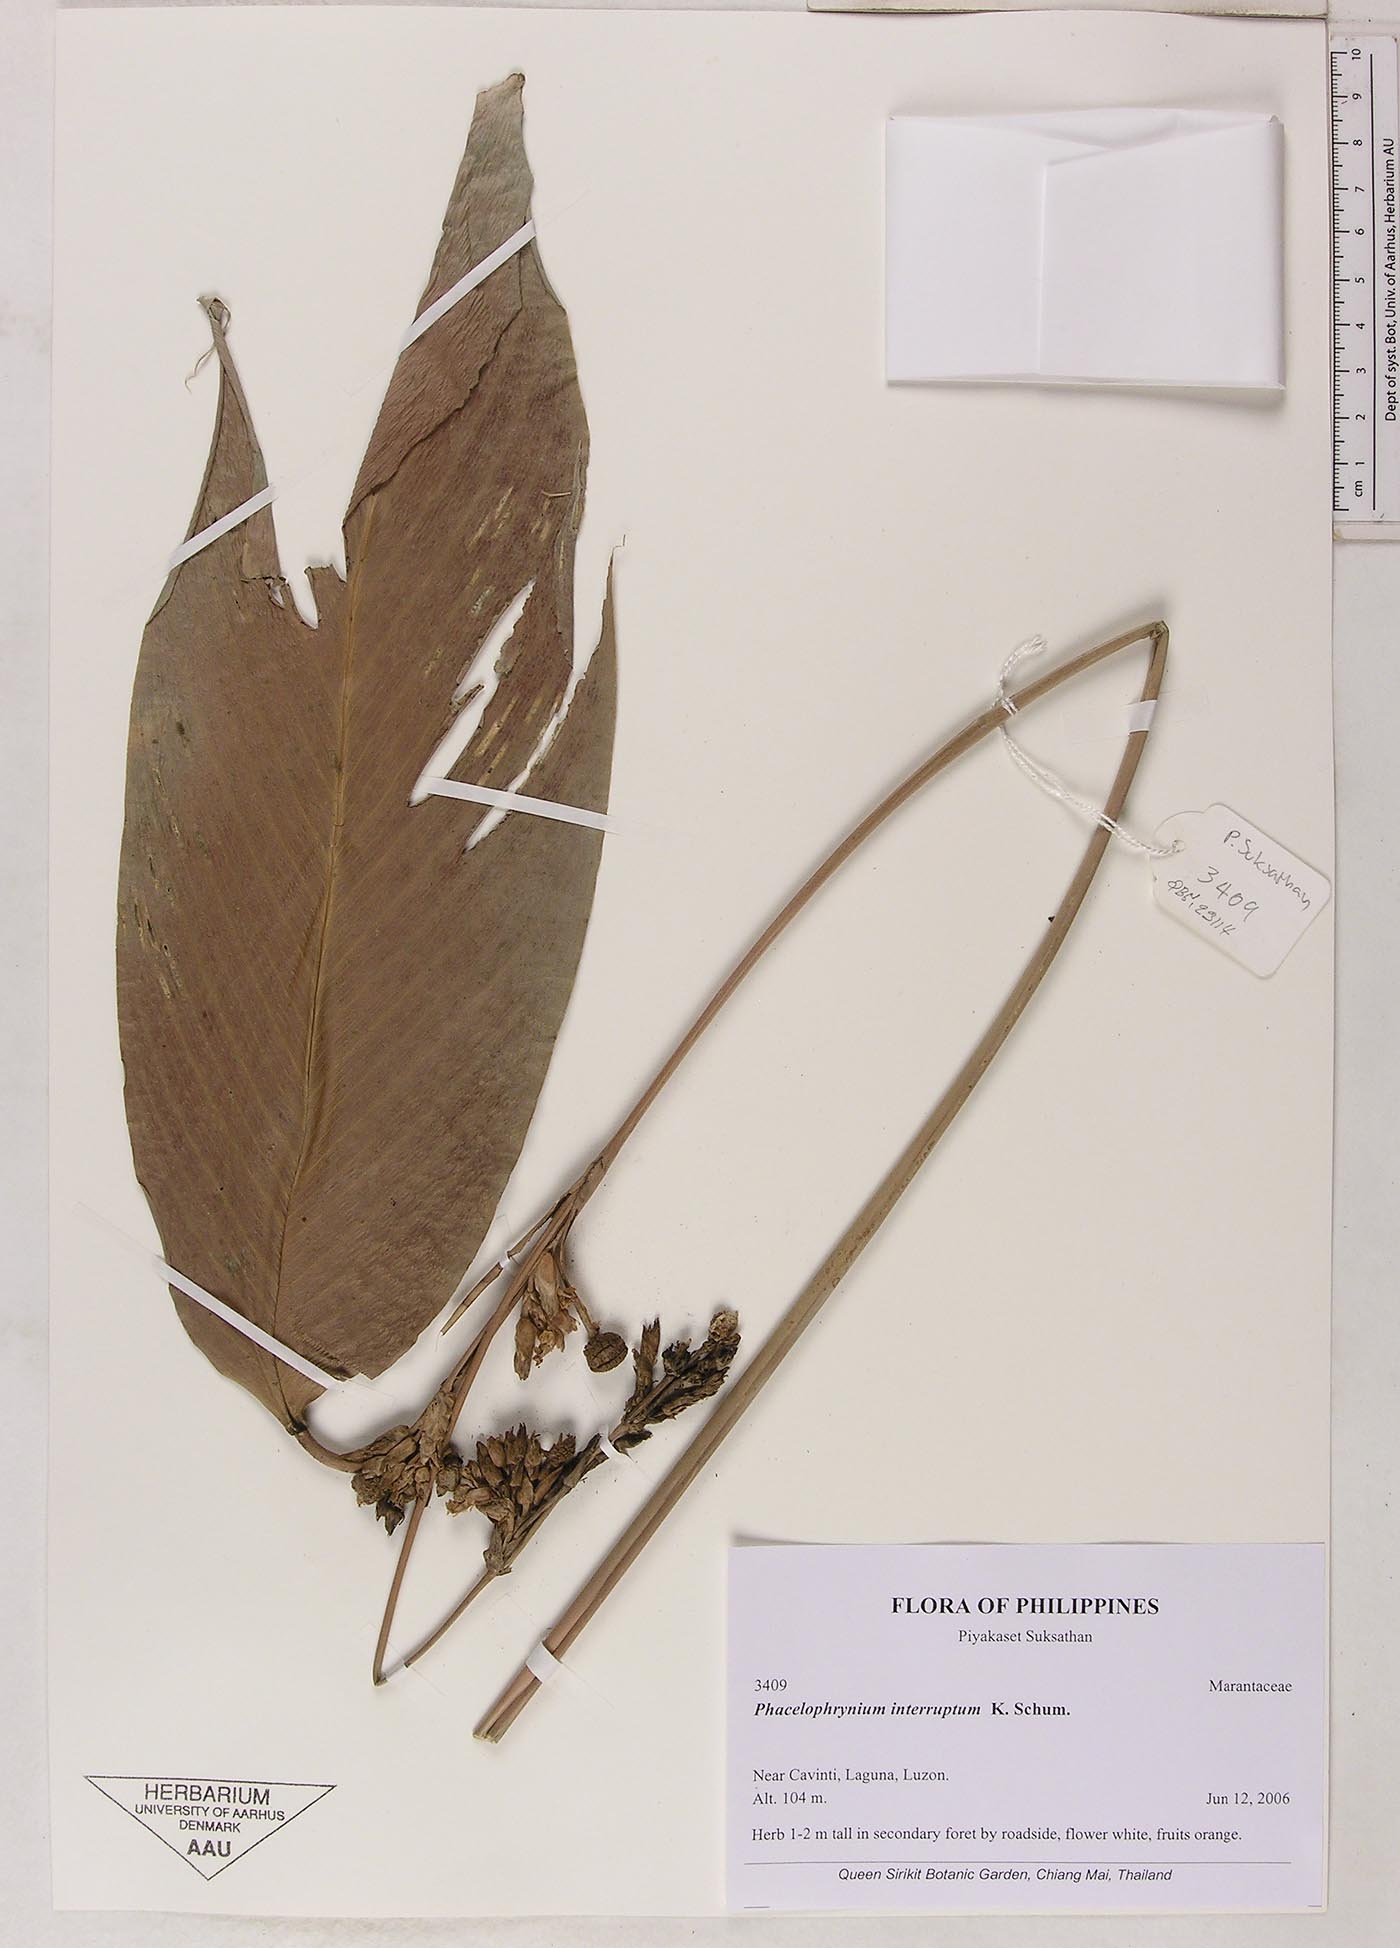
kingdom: Plantae
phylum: Tracheophyta
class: Liliopsida
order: Zingiberales
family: Marantaceae
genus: Phrynium
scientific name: Phrynium interruptum
